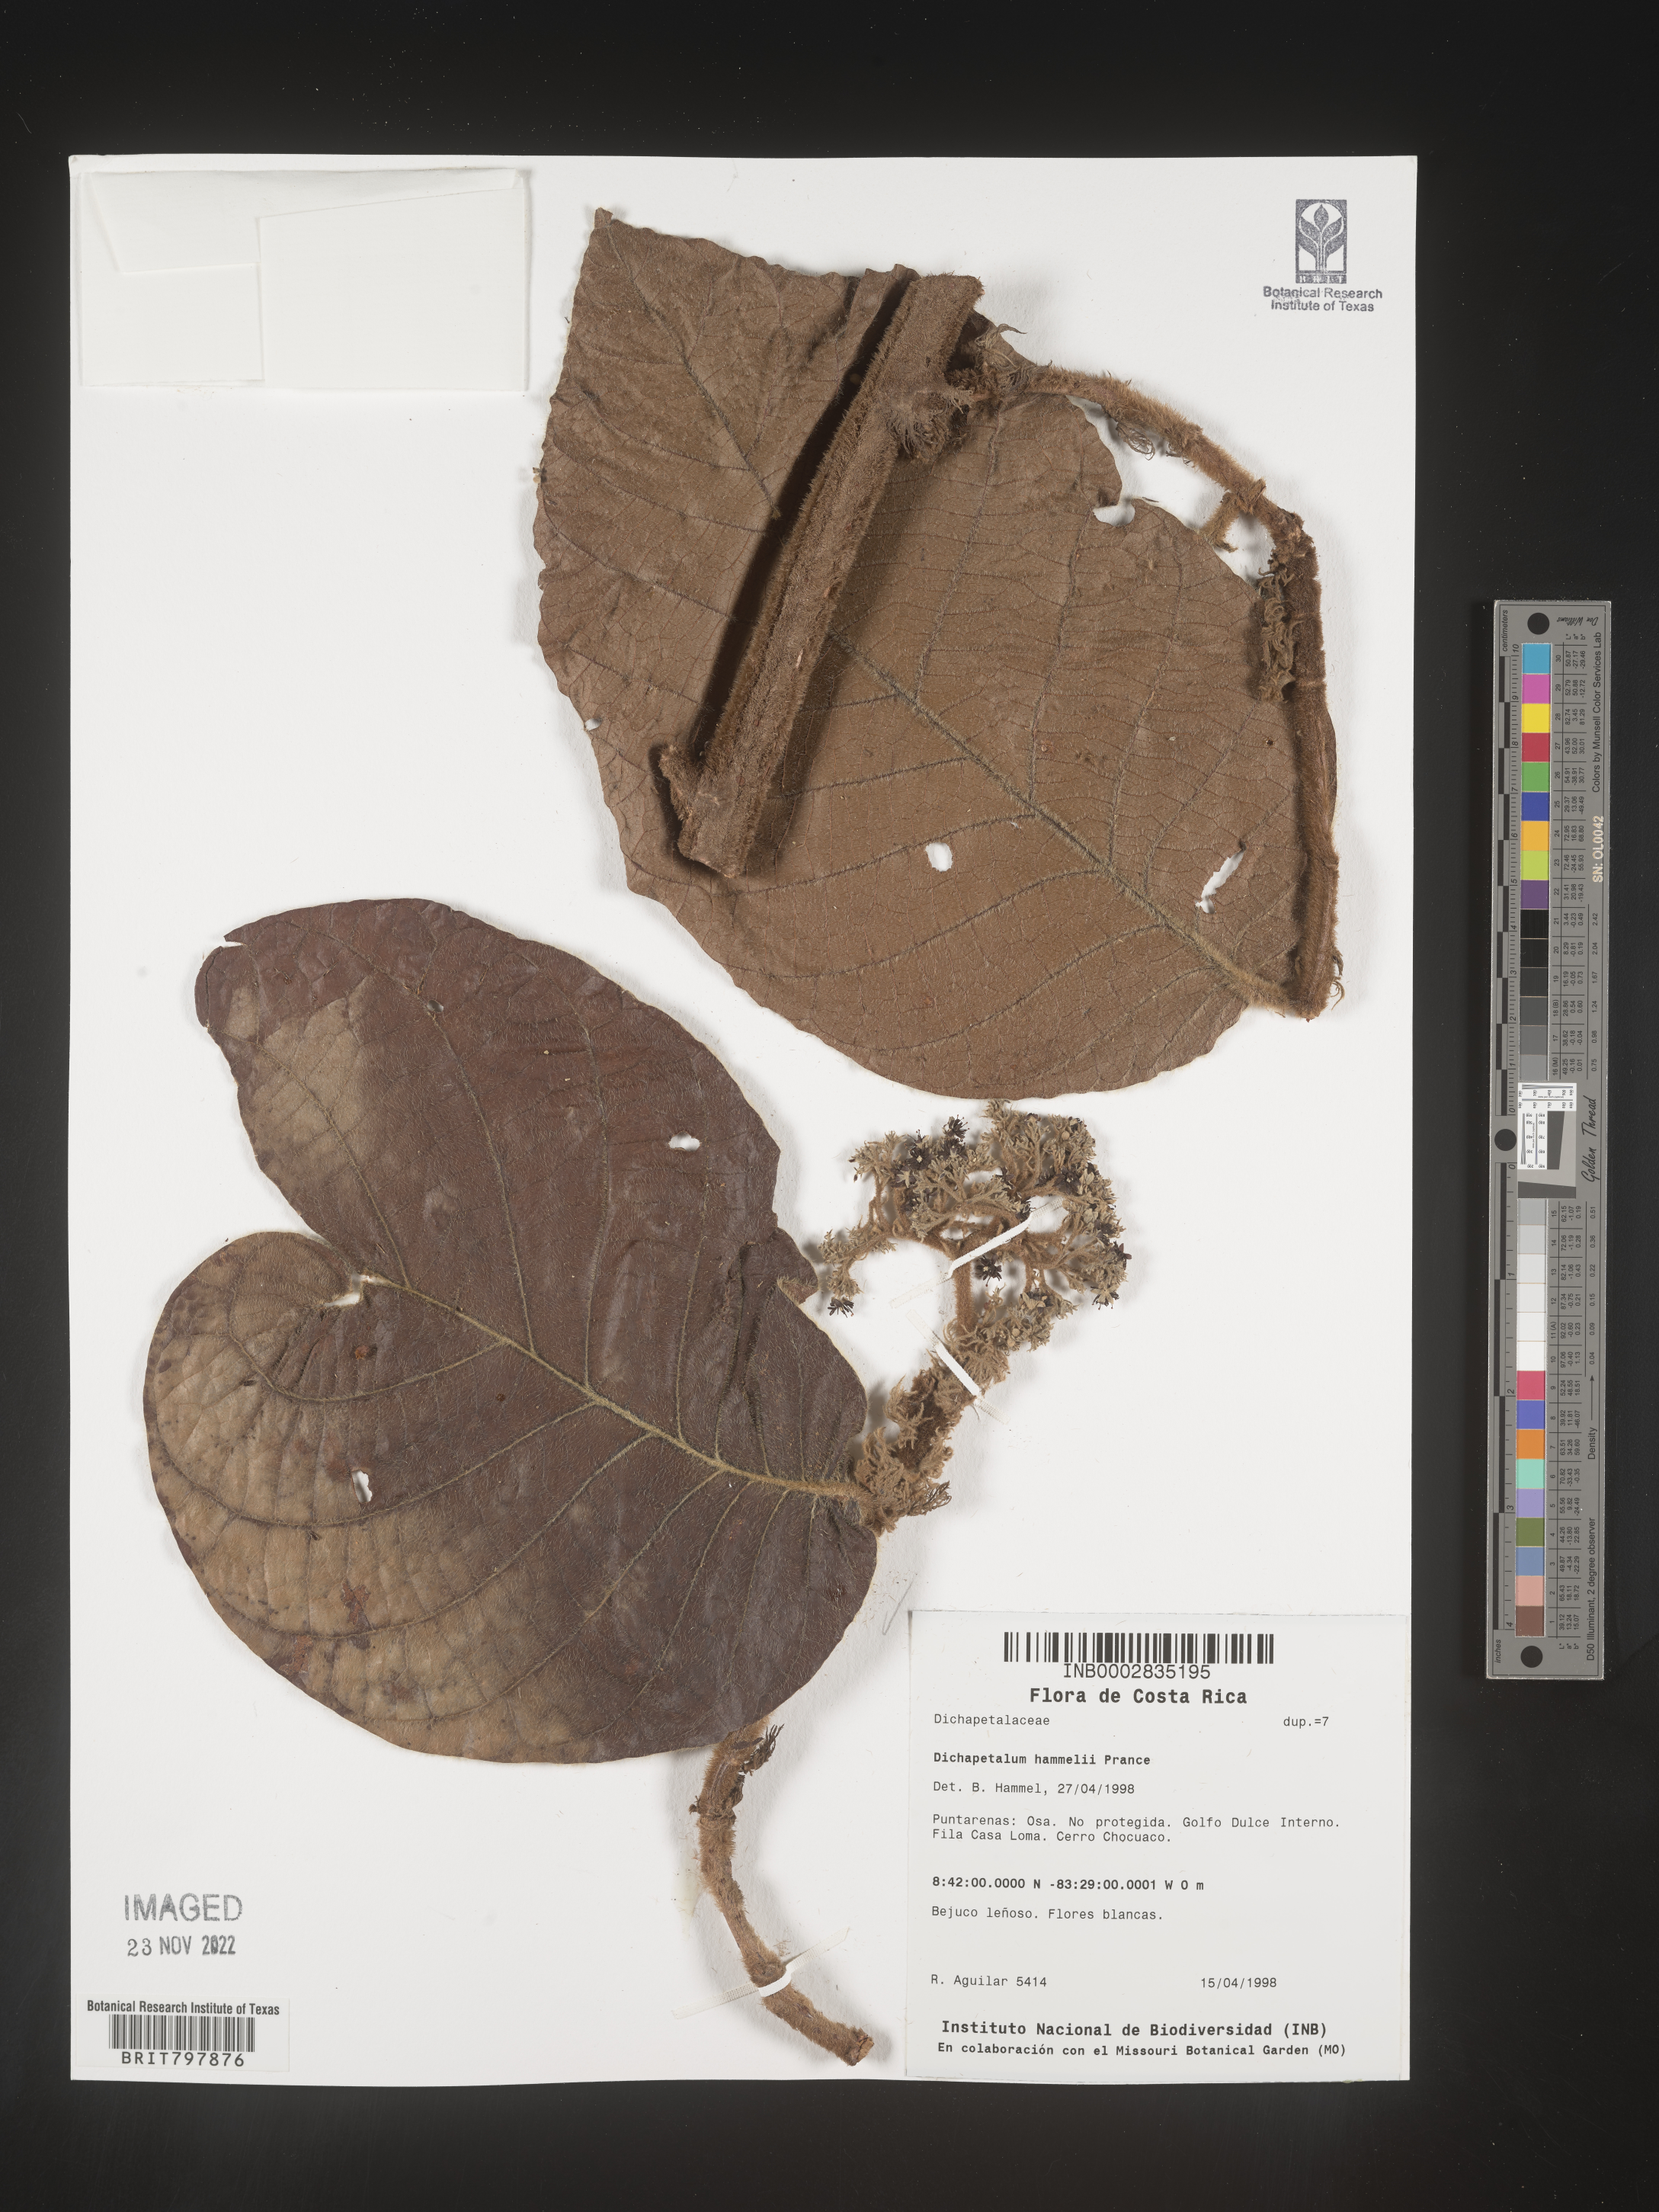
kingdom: Plantae
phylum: Tracheophyta
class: Magnoliopsida
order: Malpighiales
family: Dichapetalaceae
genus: Dichapetalum
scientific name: Dichapetalum
